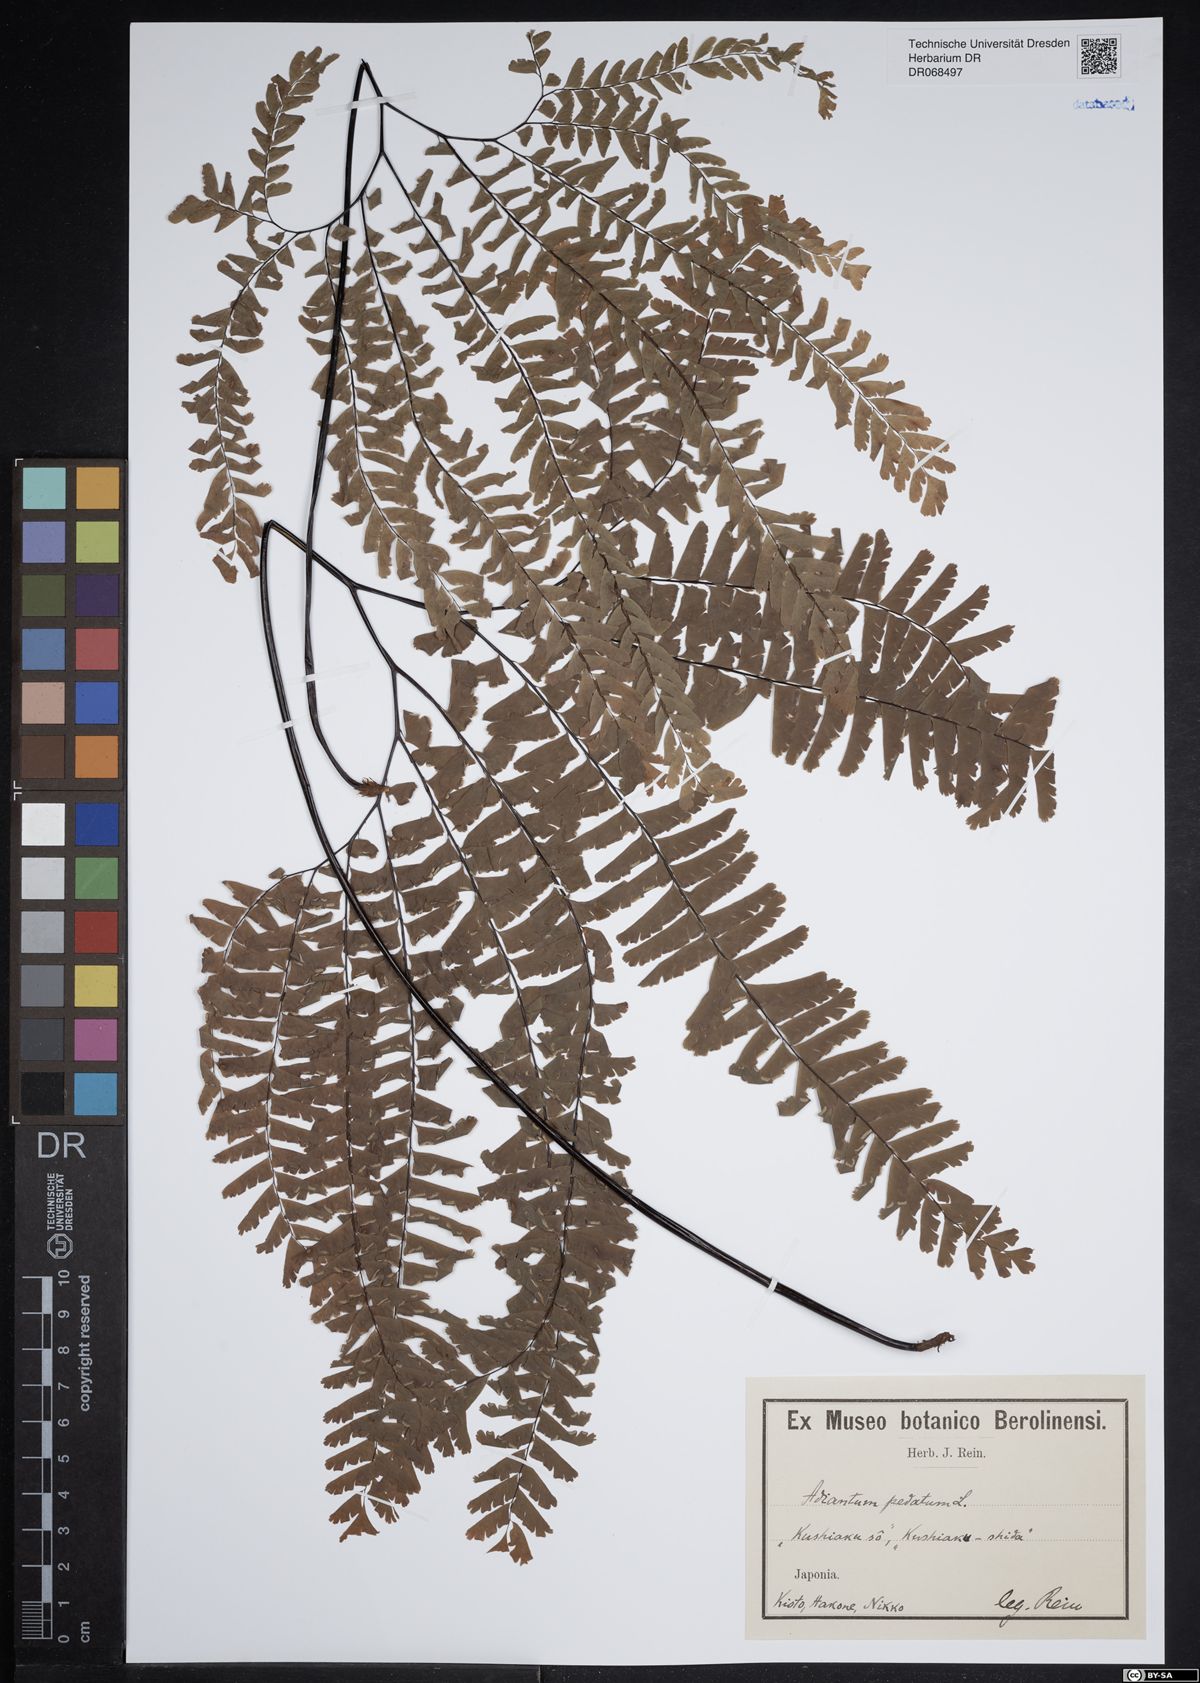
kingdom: Plantae
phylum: Tracheophyta
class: Polypodiopsida
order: Polypodiales
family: Pteridaceae
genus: Adiantum
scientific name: Adiantum pedatum
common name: Five-finger fern
